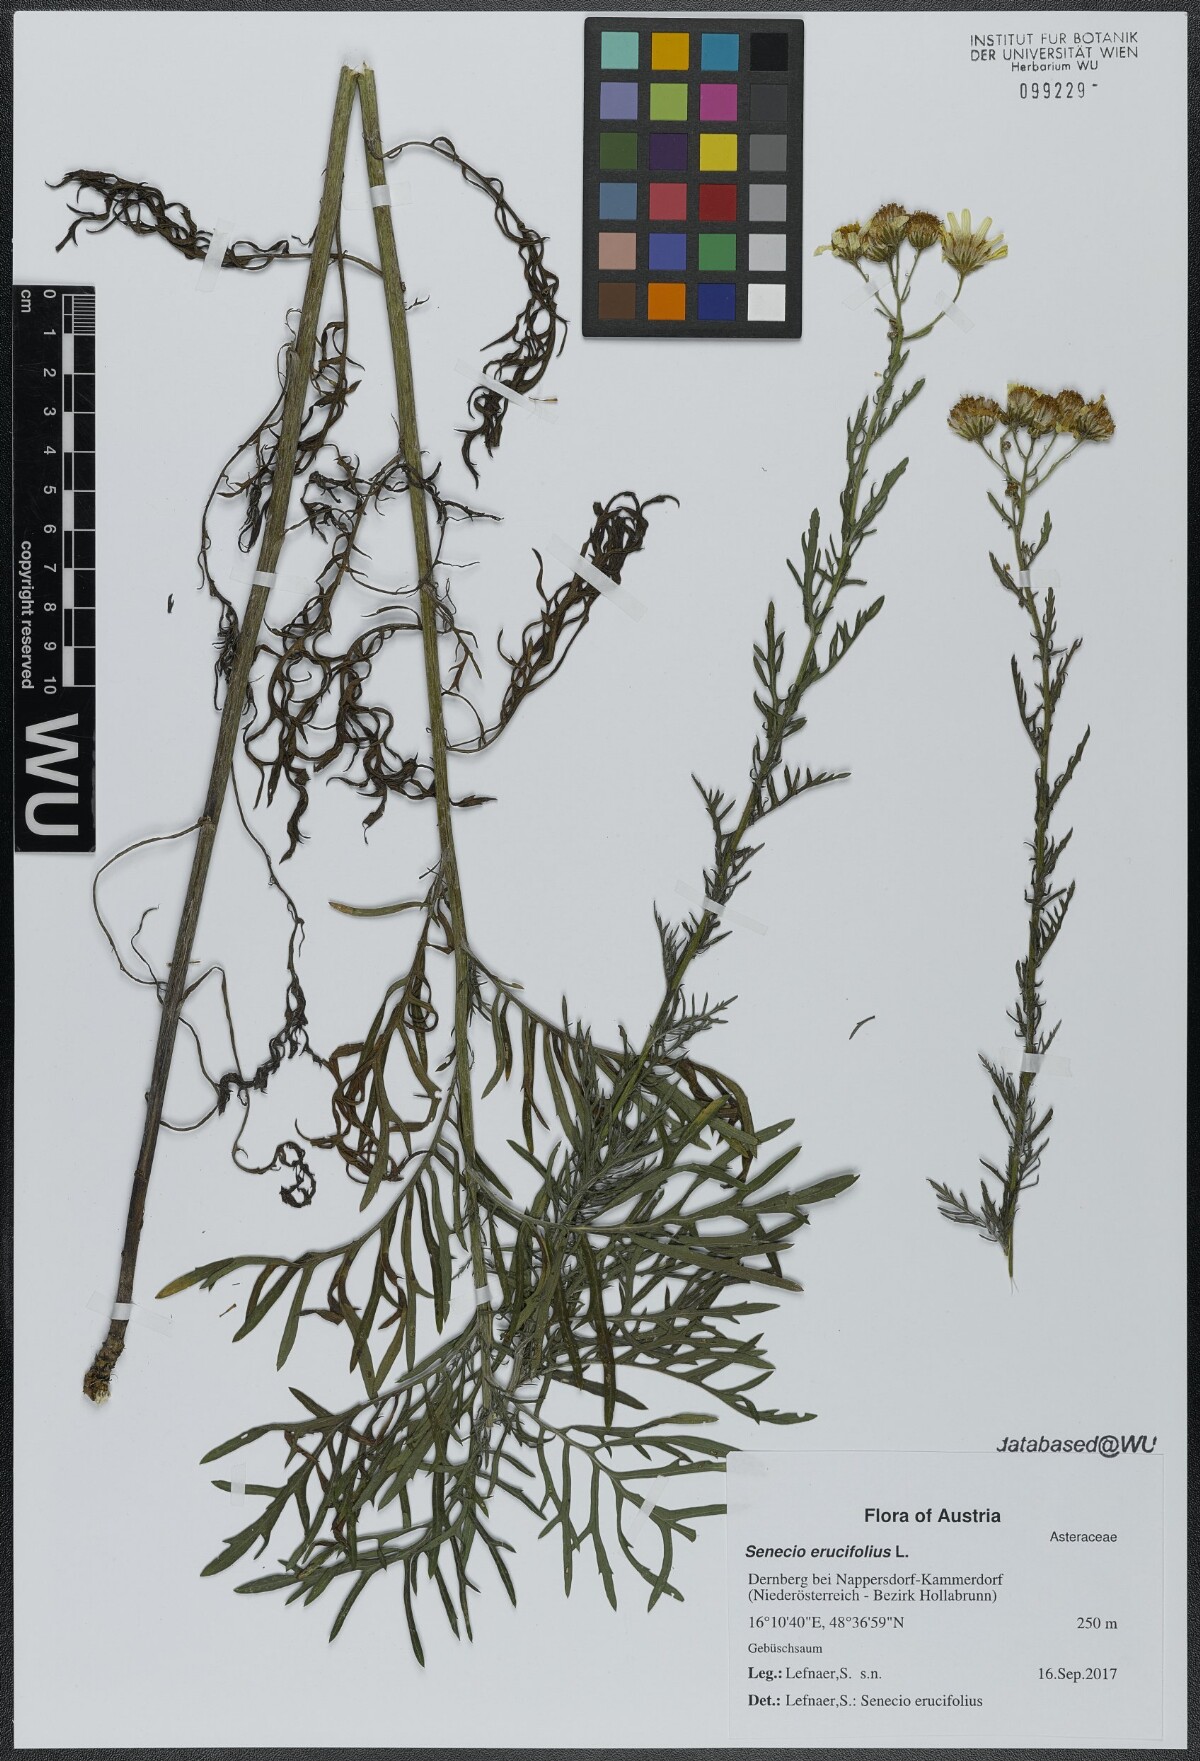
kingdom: Plantae
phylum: Tracheophyta
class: Magnoliopsida
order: Asterales
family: Asteraceae
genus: Jacobaea
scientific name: Jacobaea erucifolia
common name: Hoary ragwort
